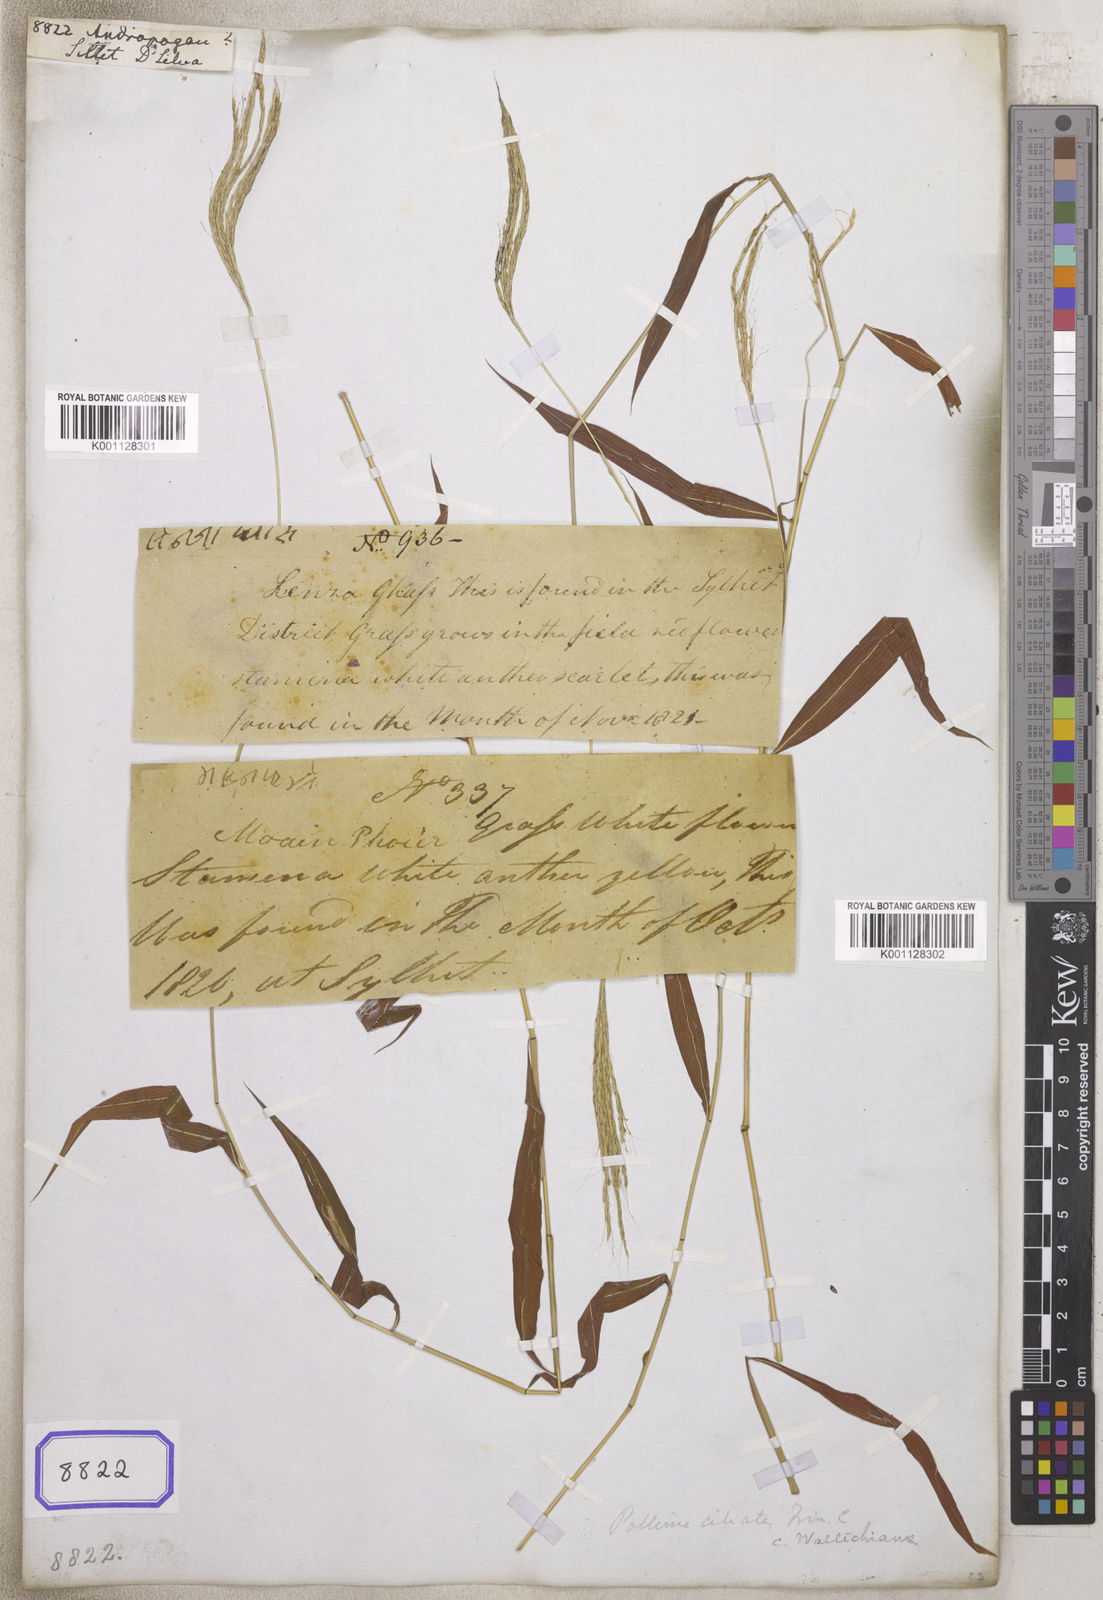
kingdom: Plantae
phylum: Tracheophyta
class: Liliopsida
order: Poales
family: Poaceae
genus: Andropogon
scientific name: Andropogon
